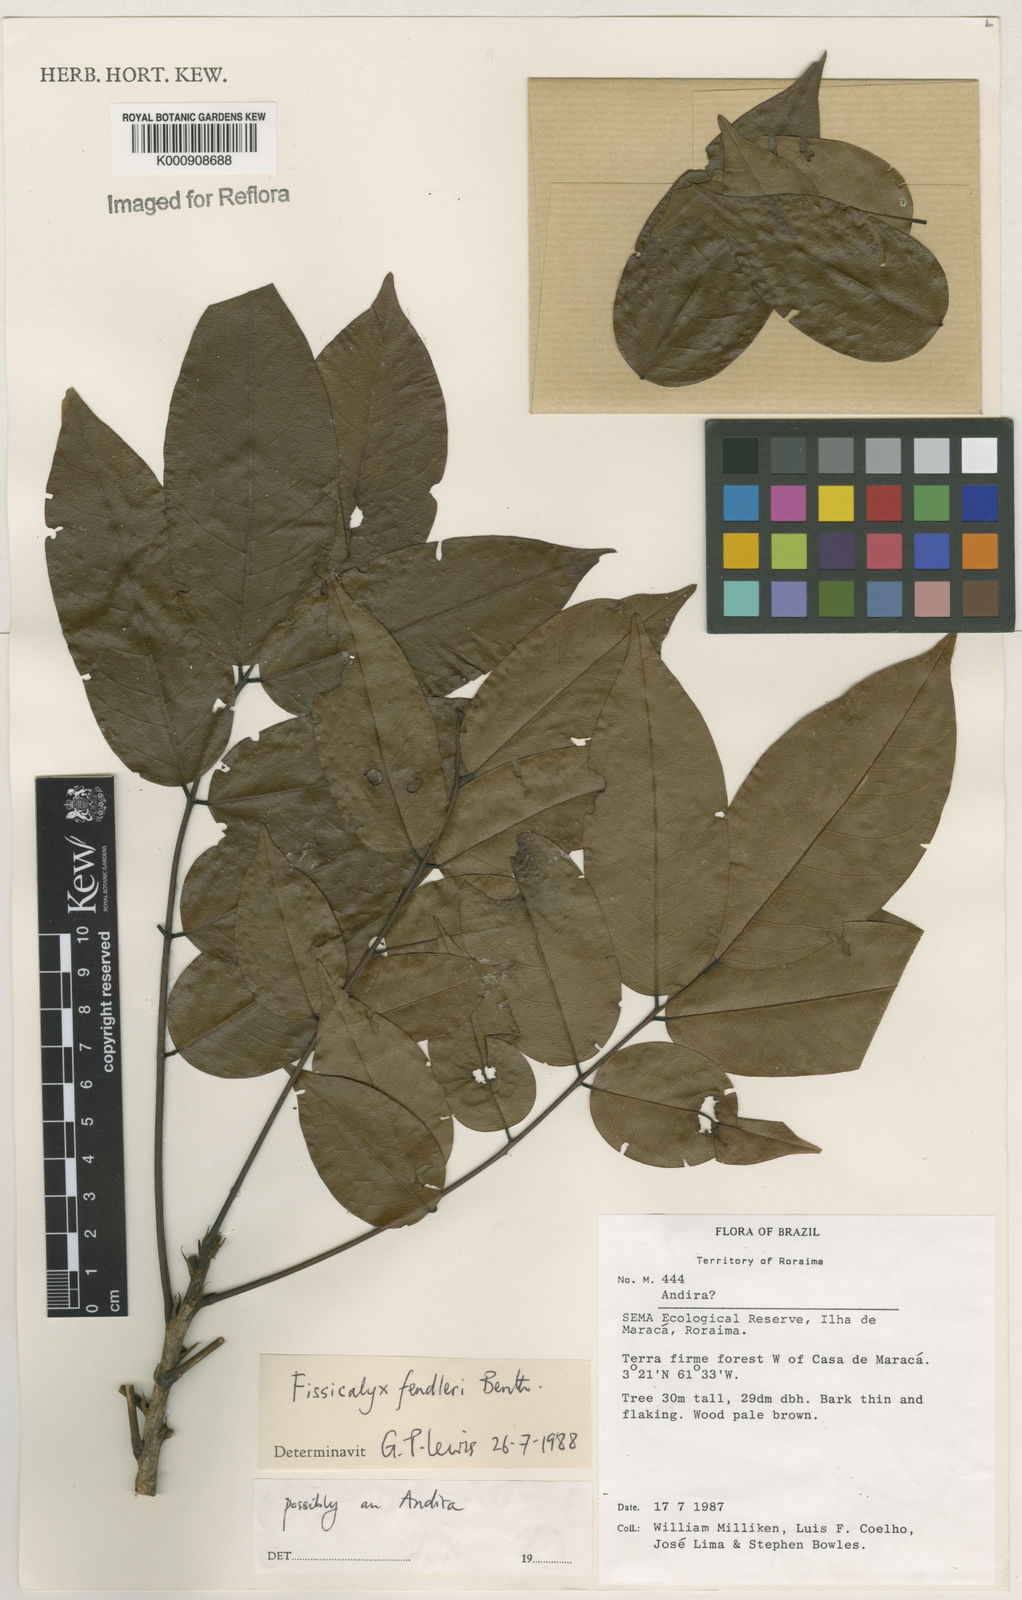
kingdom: Plantae
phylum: Tracheophyta
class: Magnoliopsida
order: Fabales
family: Fabaceae
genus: Fissicalyx
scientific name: Fissicalyx fendleri
